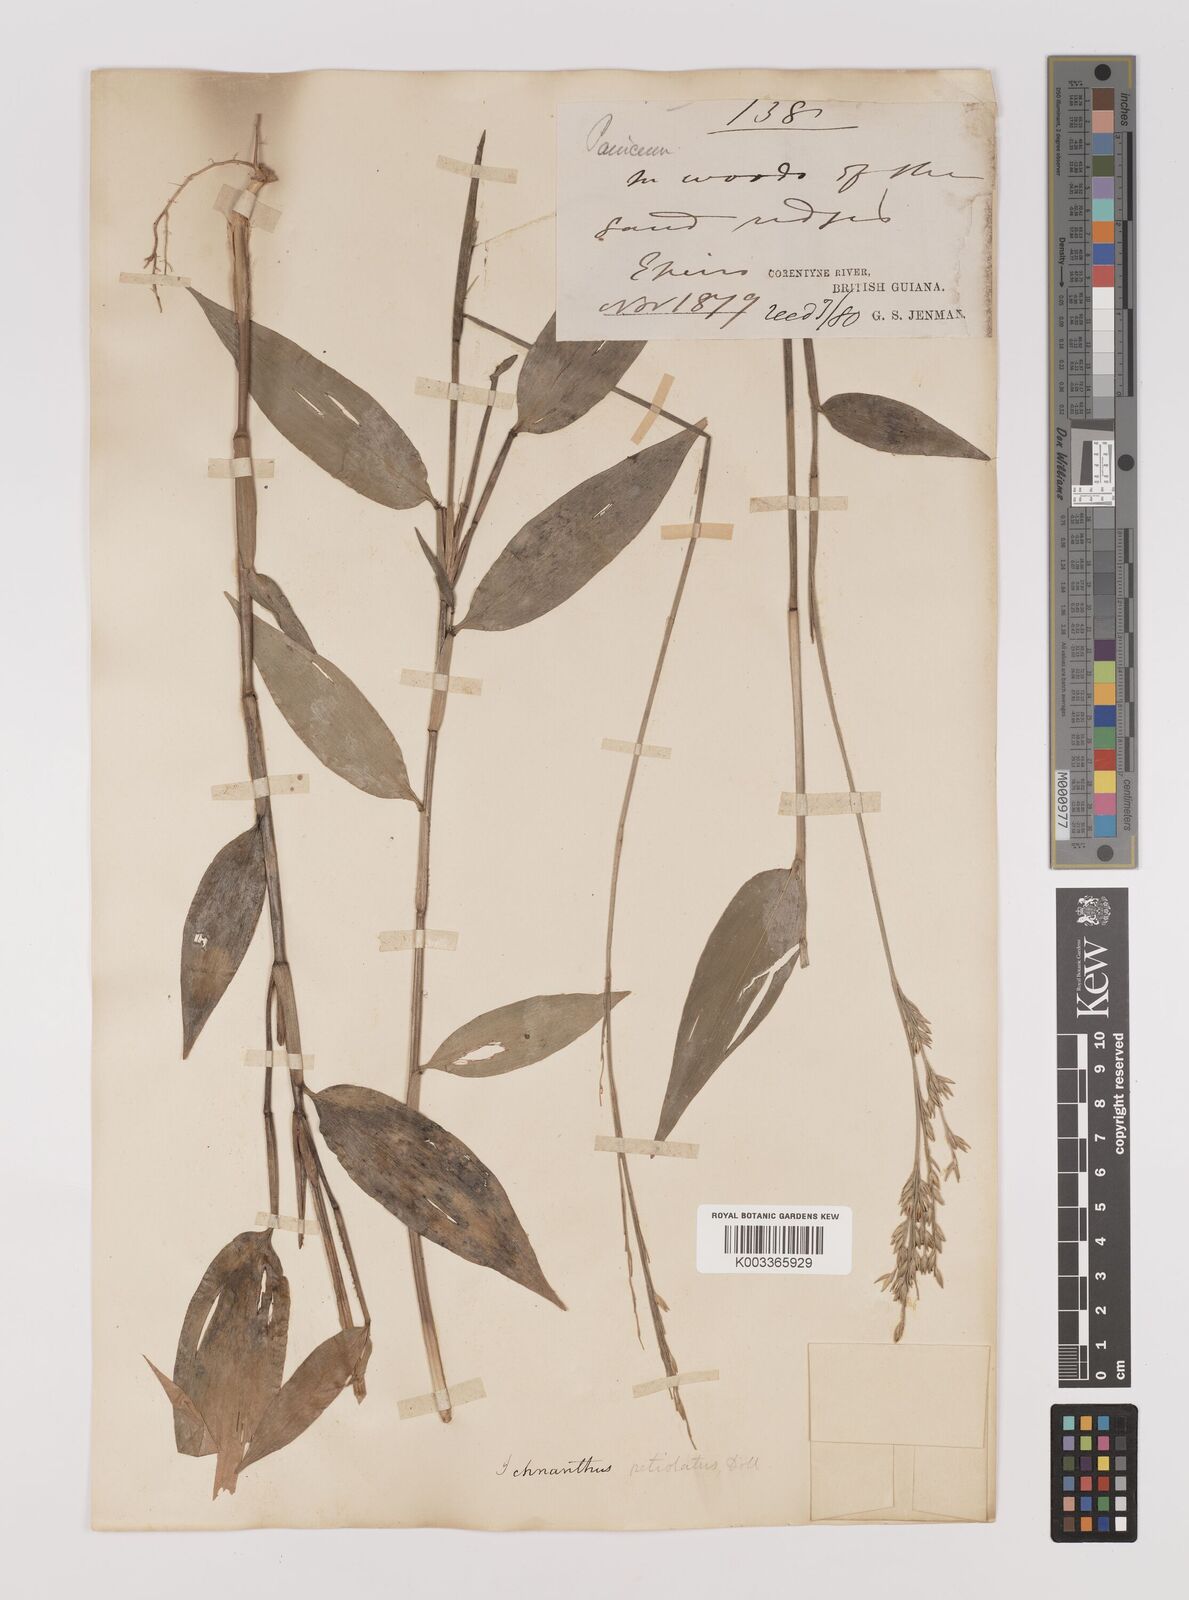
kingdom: Plantae
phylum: Tracheophyta
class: Liliopsida
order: Poales
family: Poaceae
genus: Ichnanthus
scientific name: Ichnanthus nemoralis
